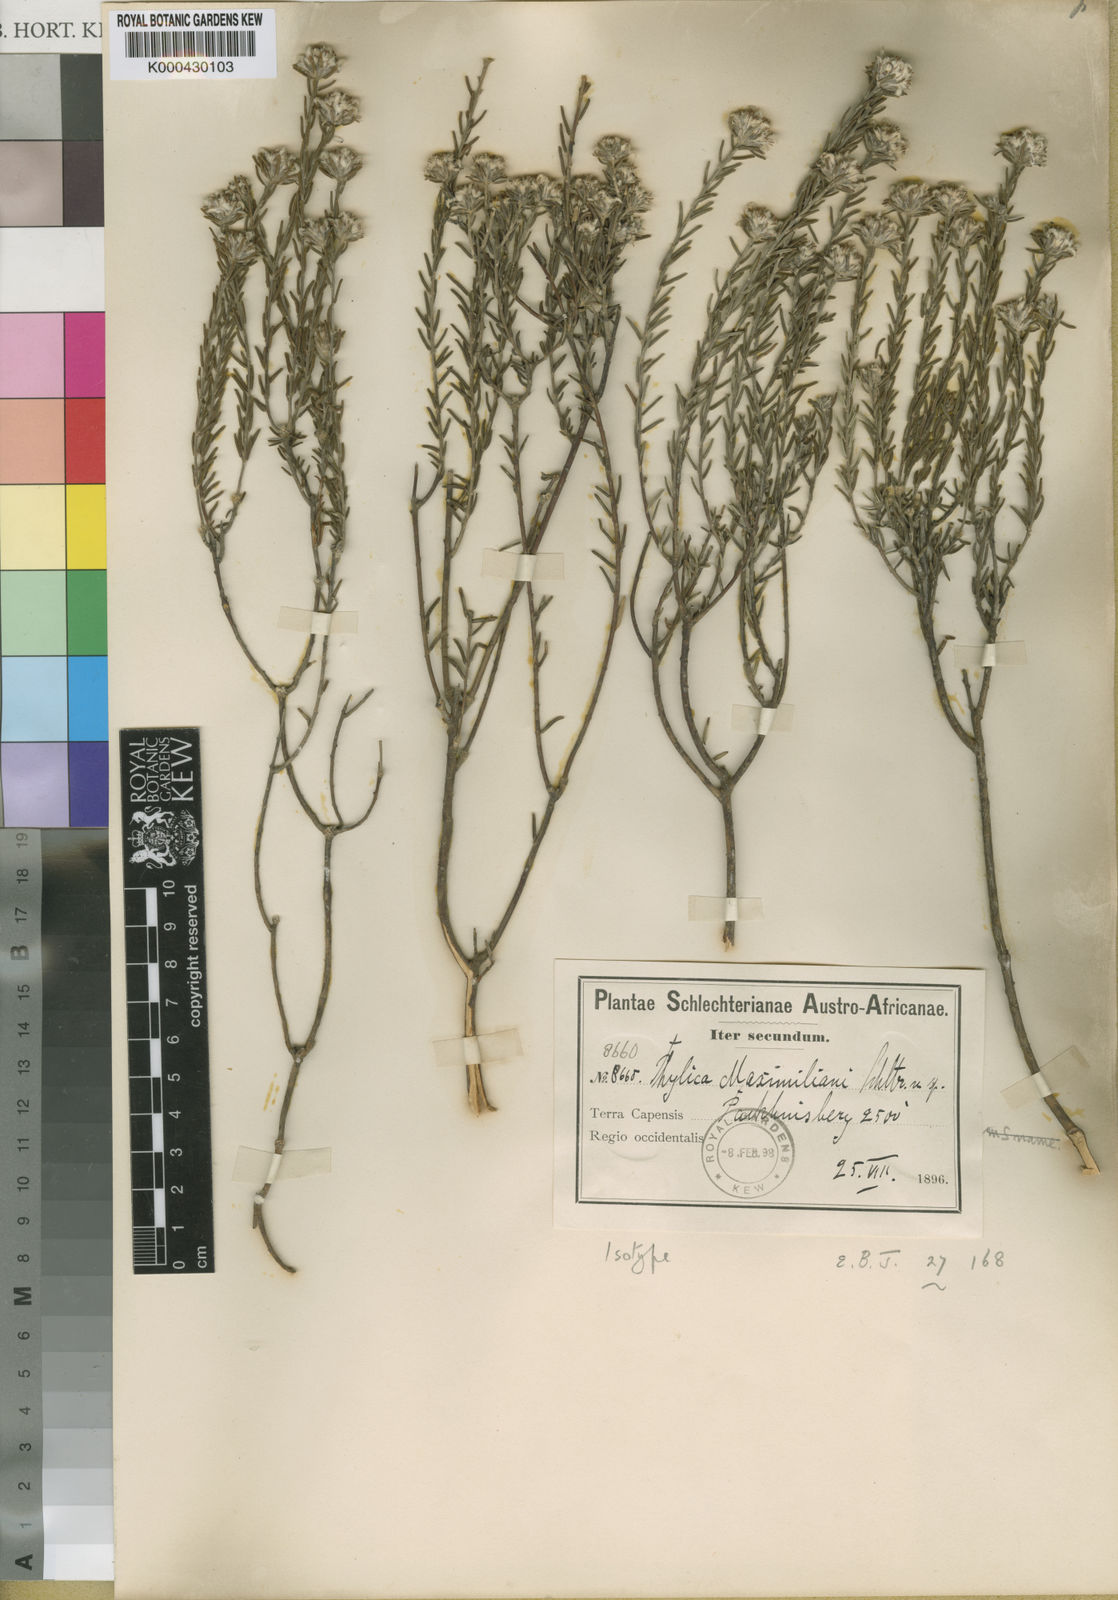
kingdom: Plantae
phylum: Tracheophyta
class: Magnoliopsida
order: Rosales
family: Rhamnaceae
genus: Phylica
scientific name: Phylica maximiliani
